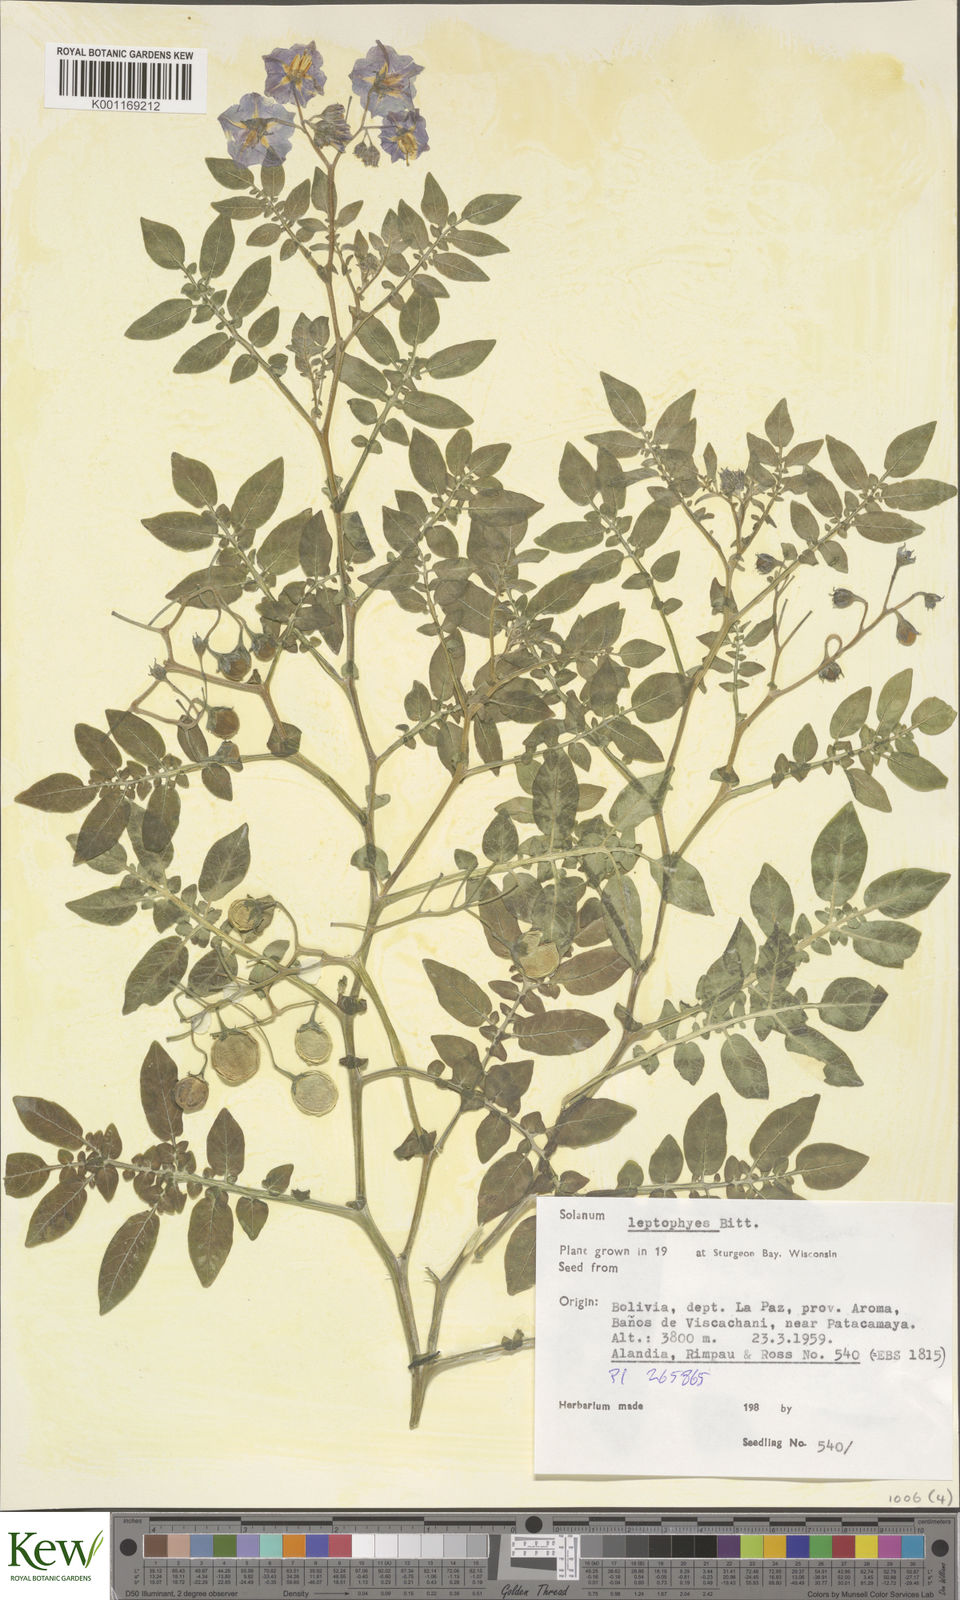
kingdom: Plantae
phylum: Tracheophyta
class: Magnoliopsida
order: Solanales
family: Solanaceae
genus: Solanum
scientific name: Solanum brevicaule
